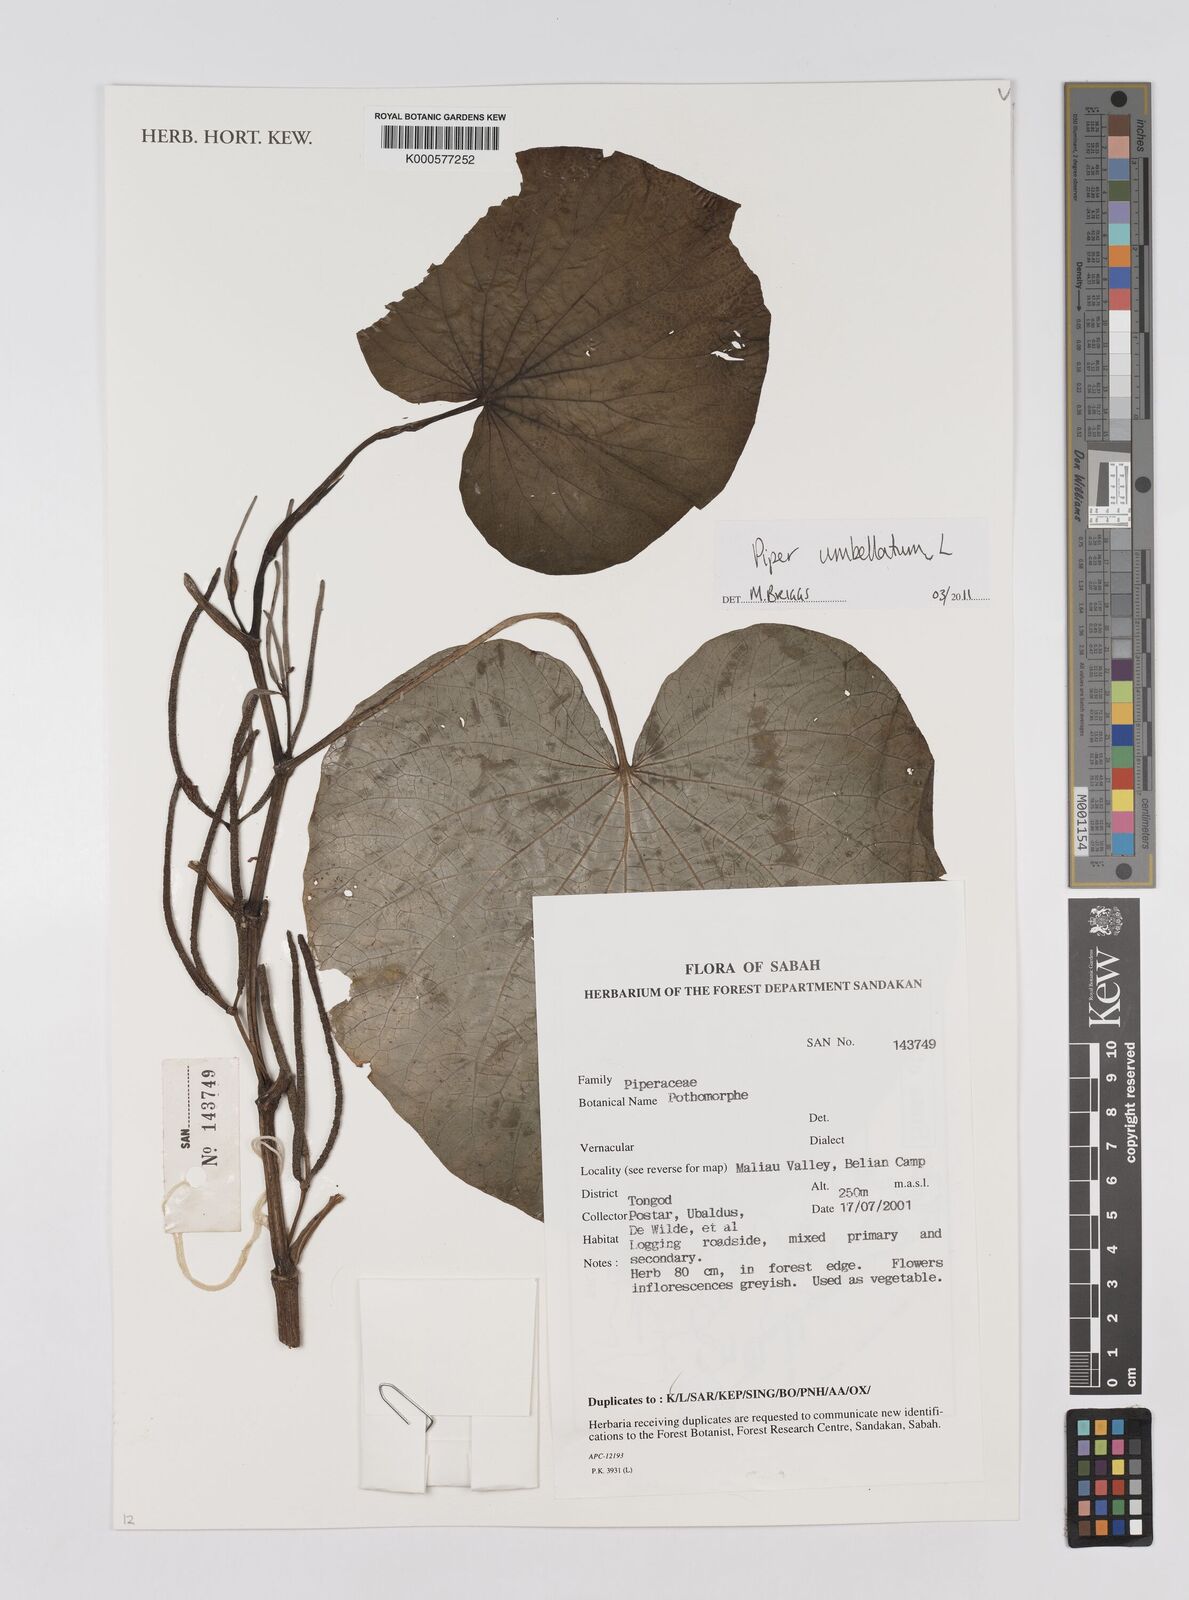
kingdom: Plantae
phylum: Tracheophyta
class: Magnoliopsida
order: Piperales
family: Piperaceae
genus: Piper
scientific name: Piper umbellatum
